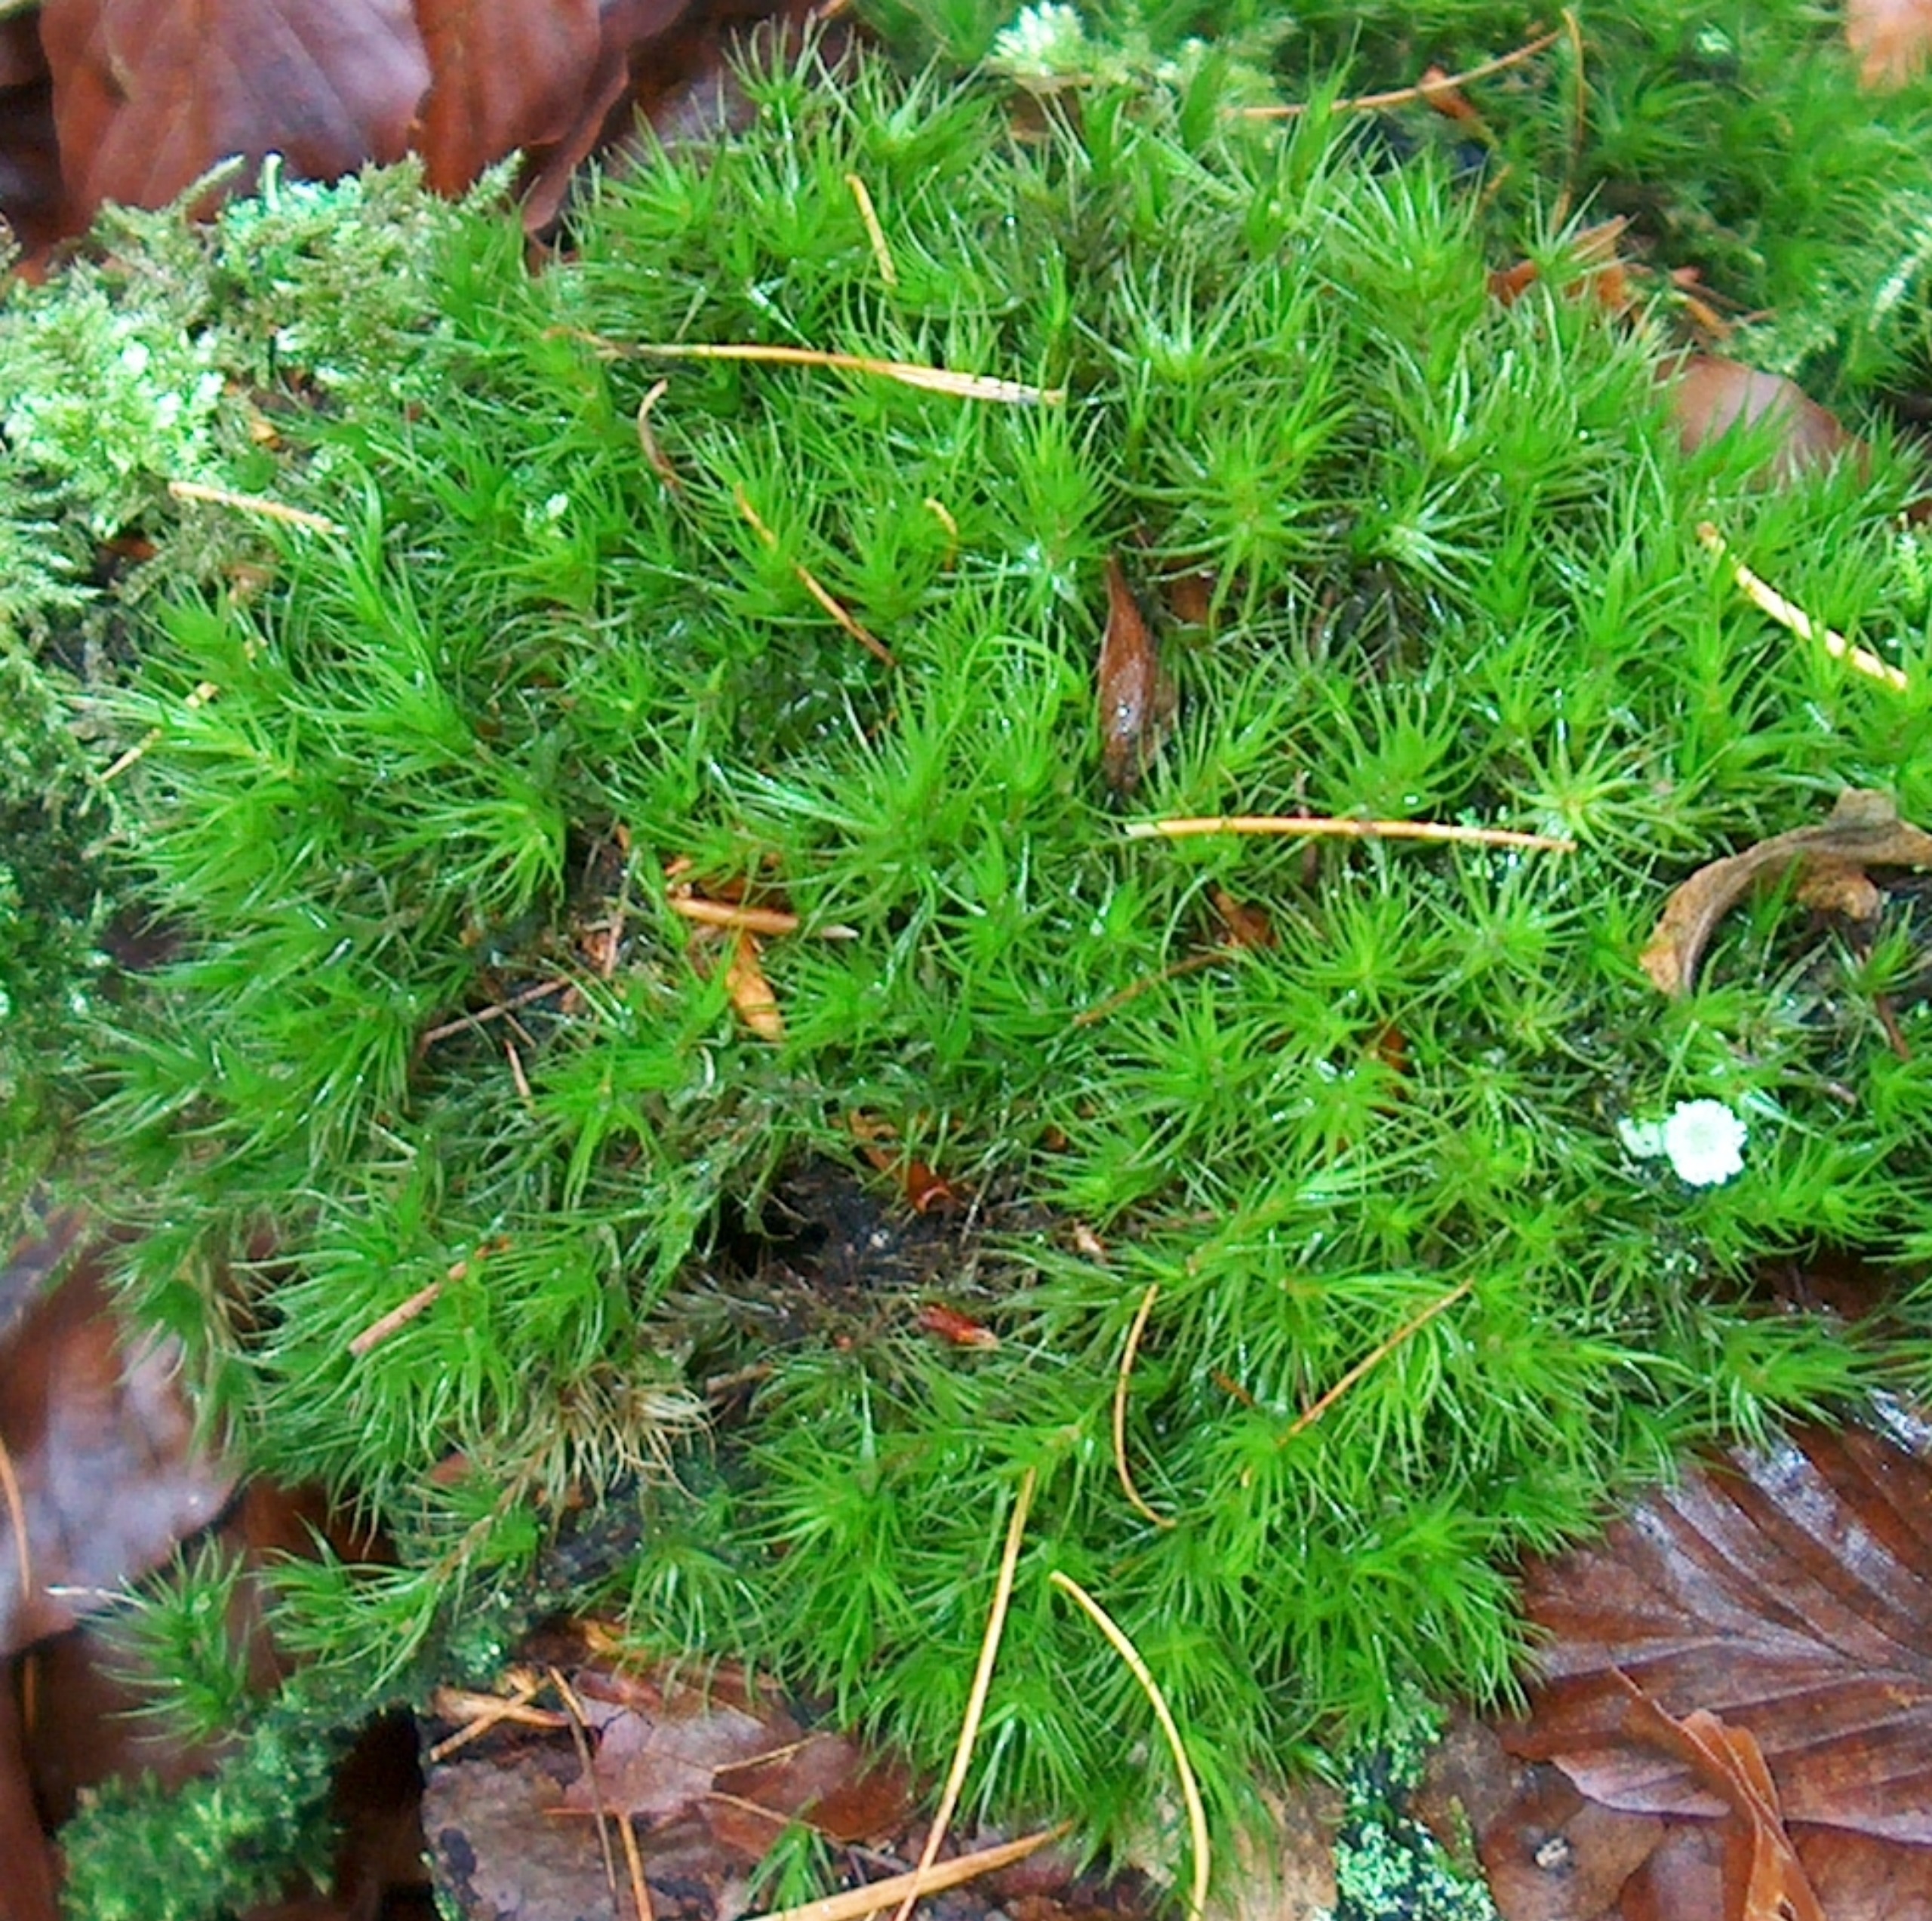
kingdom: Plantae
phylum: Bryophyta
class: Bryopsida
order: Dicranales
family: Dicranaceae
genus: Dicranum
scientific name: Dicranum scoparium
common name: Almindelig kløvtand
